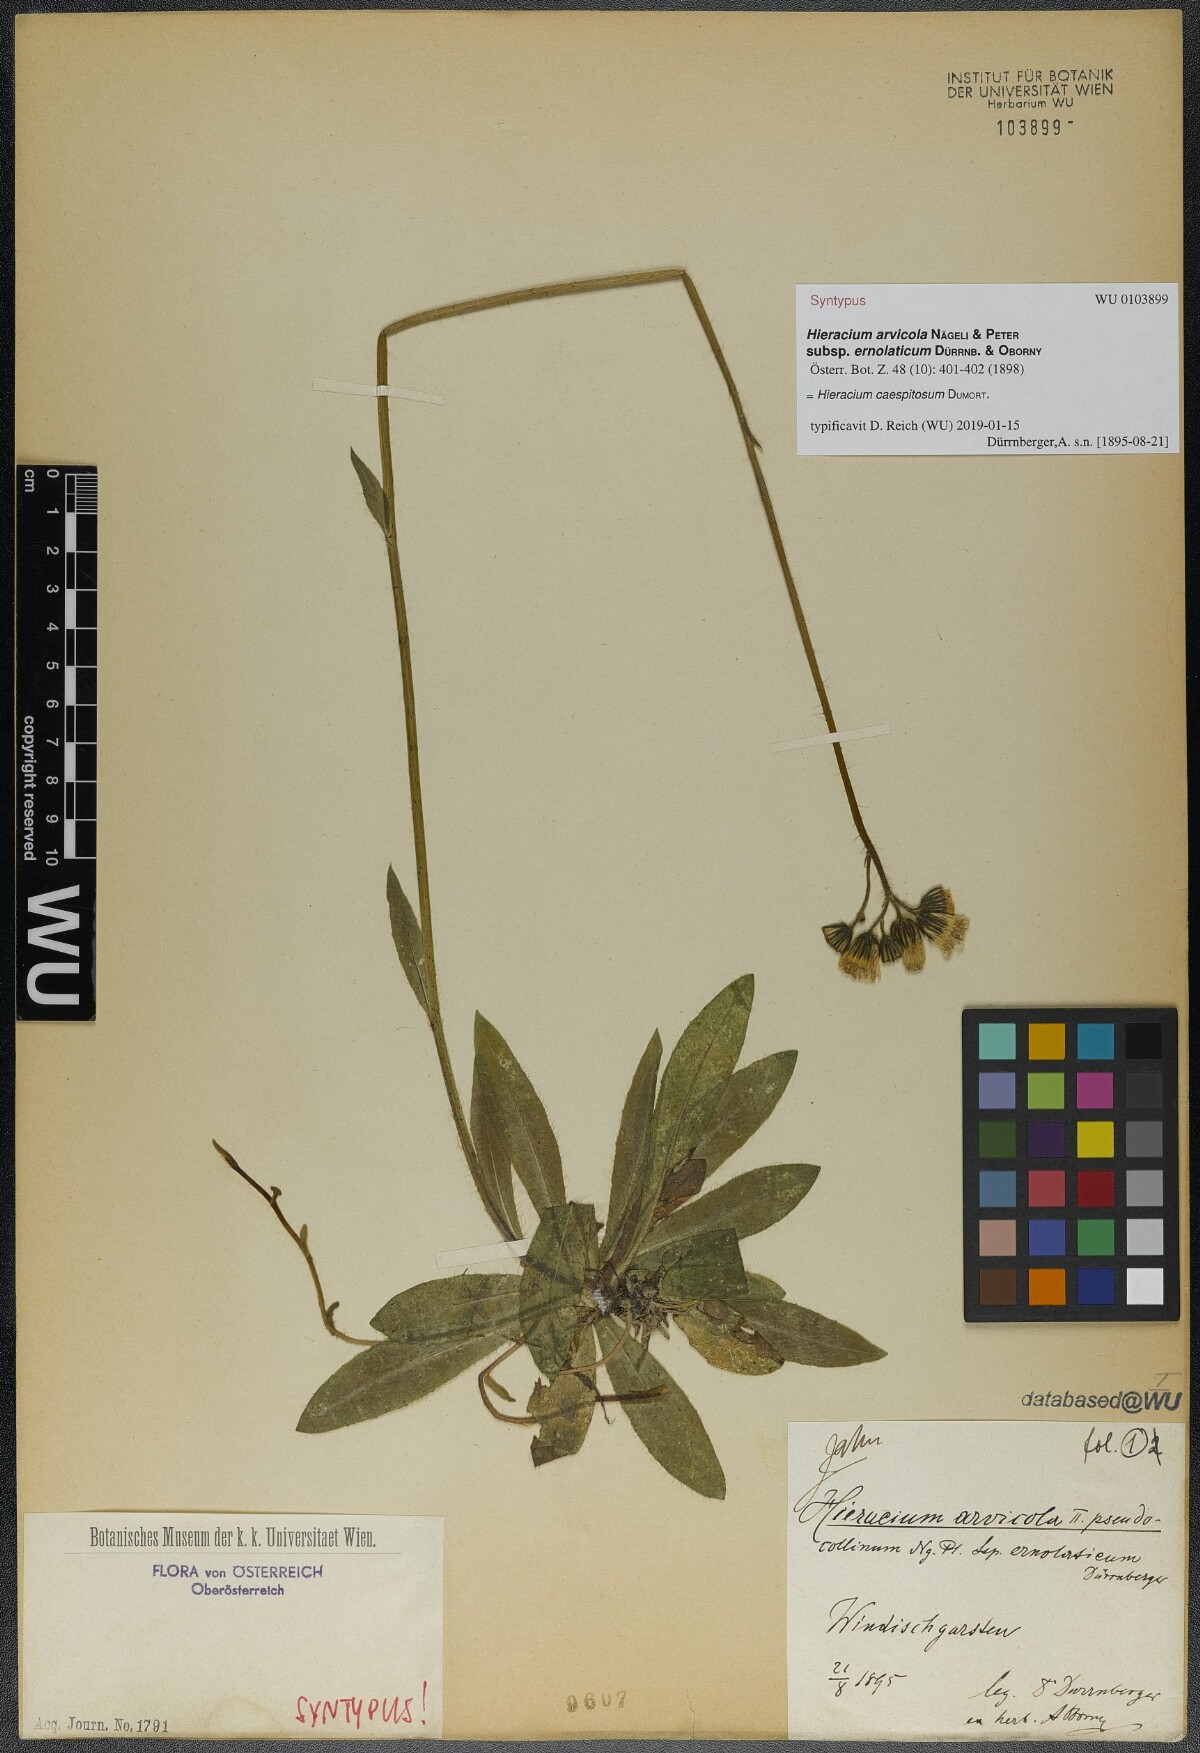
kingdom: Plantae
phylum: Tracheophyta
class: Magnoliopsida
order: Asterales
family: Asteraceae
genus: Pilosella
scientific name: Pilosella erythrochrista
